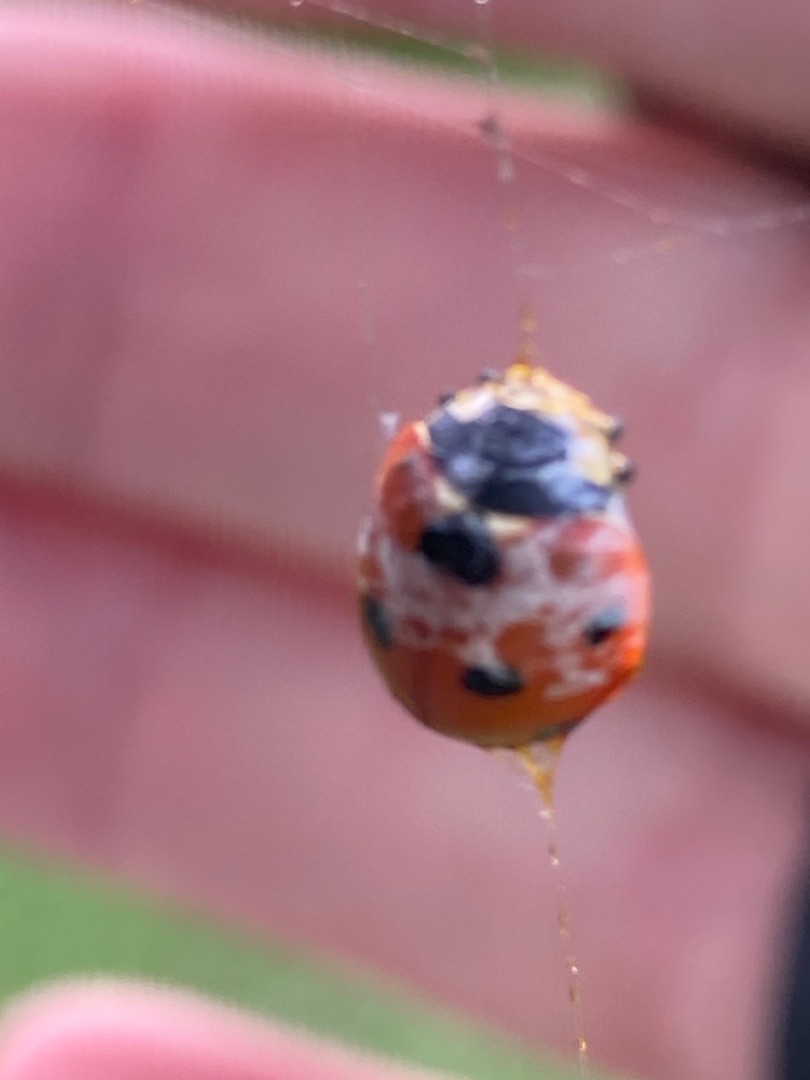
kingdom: Animalia
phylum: Arthropoda
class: Insecta
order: Coleoptera
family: Coccinellidae
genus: Coccinella
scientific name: Coccinella septempunctata
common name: Syvplettet mariehøne
